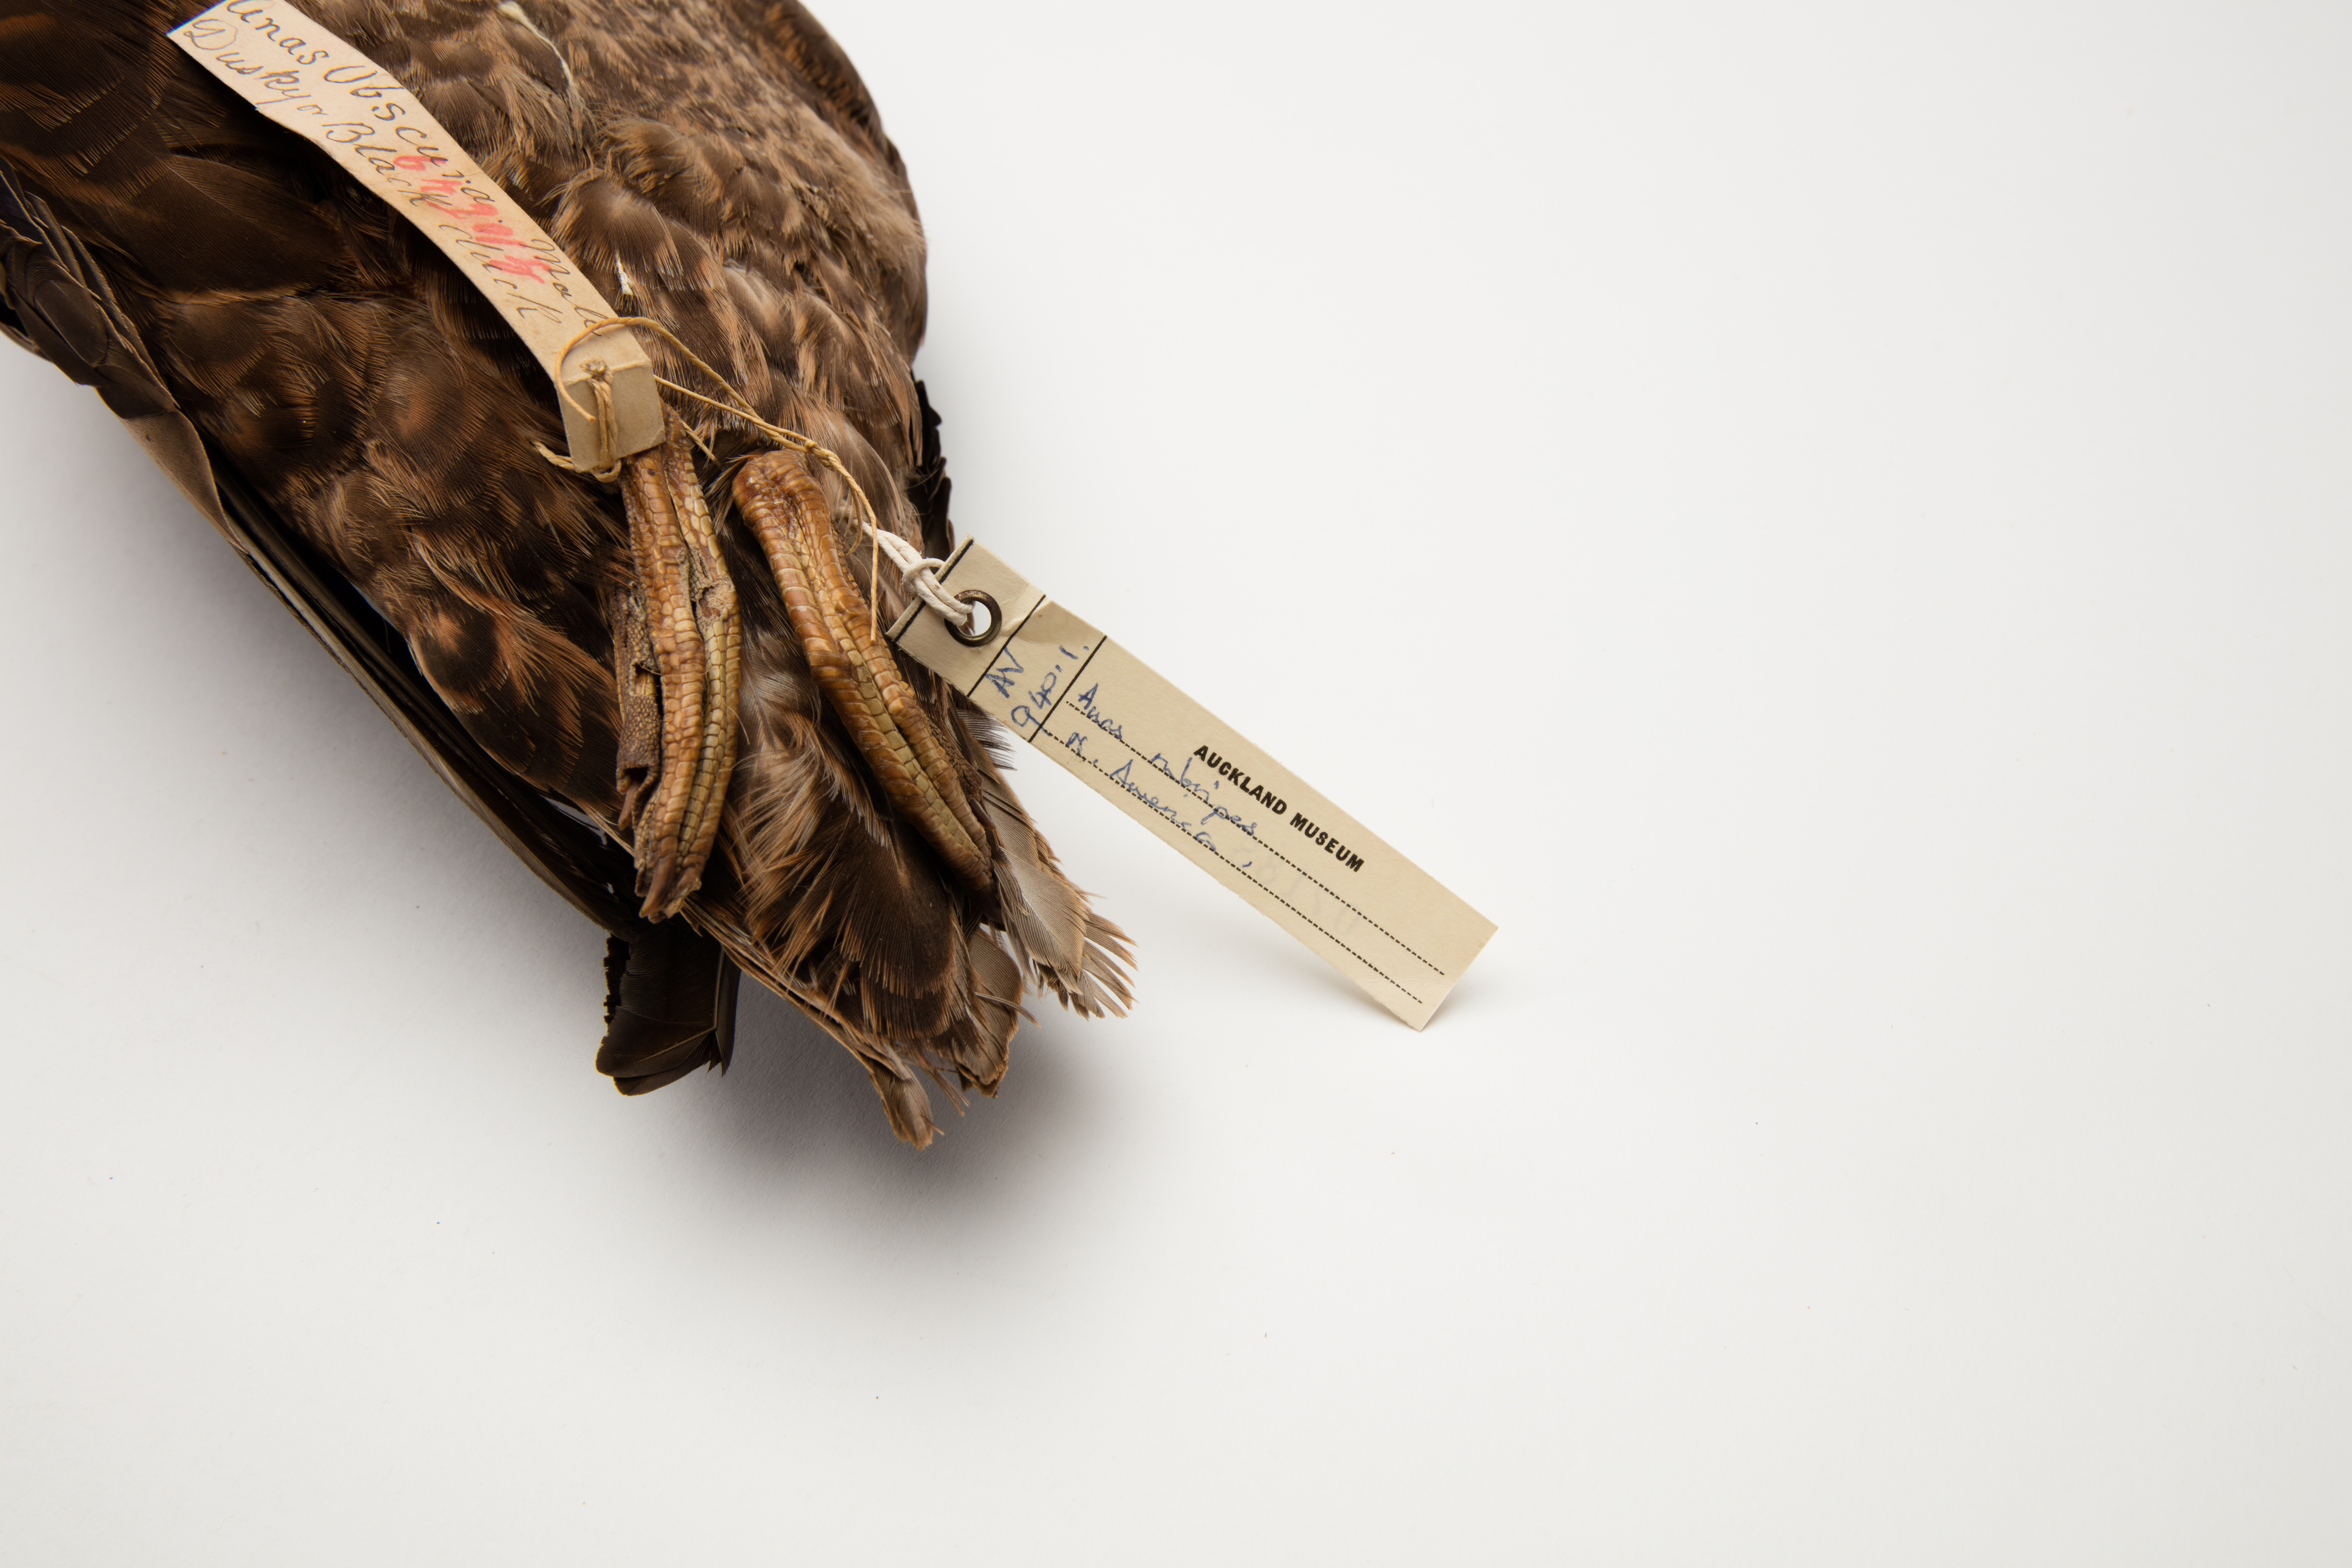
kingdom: Animalia
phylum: Chordata
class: Aves
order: Anseriformes
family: Anatidae
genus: Anas
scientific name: Anas rubripes
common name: American black duck
